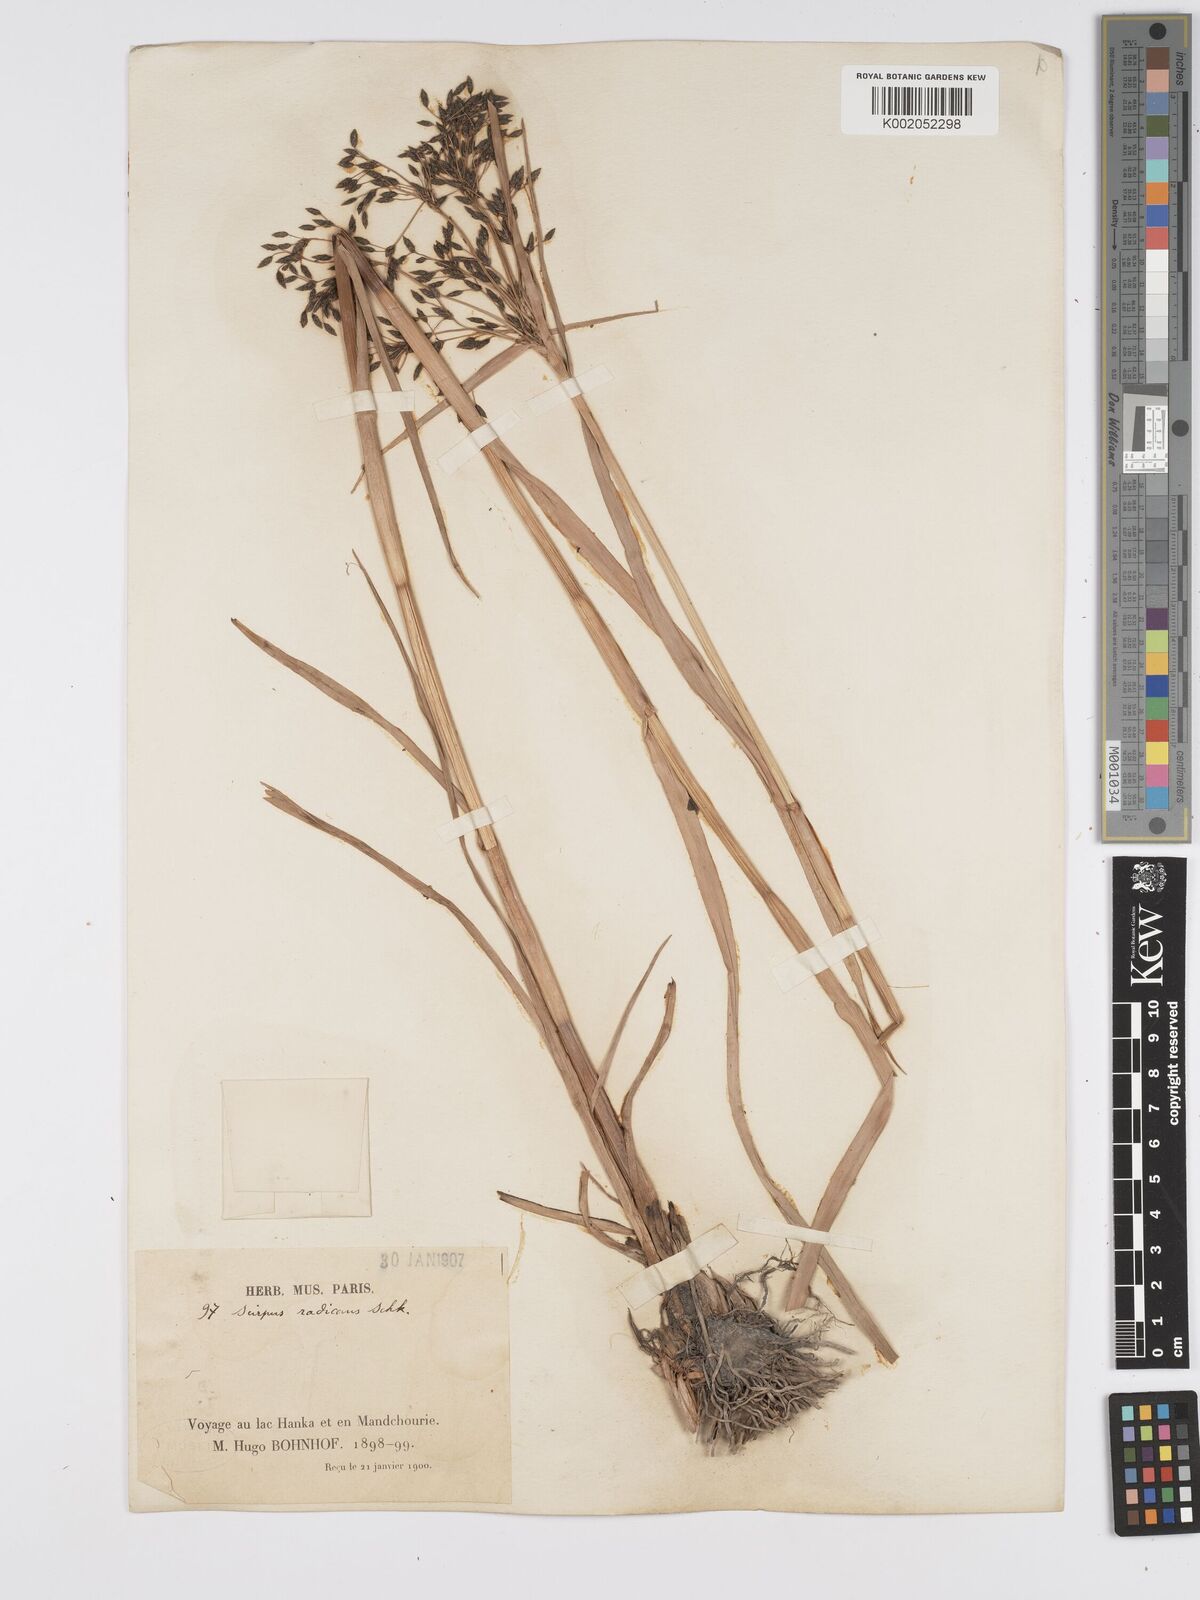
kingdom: Plantae
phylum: Tracheophyta
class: Liliopsida
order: Poales
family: Cyperaceae
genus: Scirpus
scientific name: Scirpus radicans
